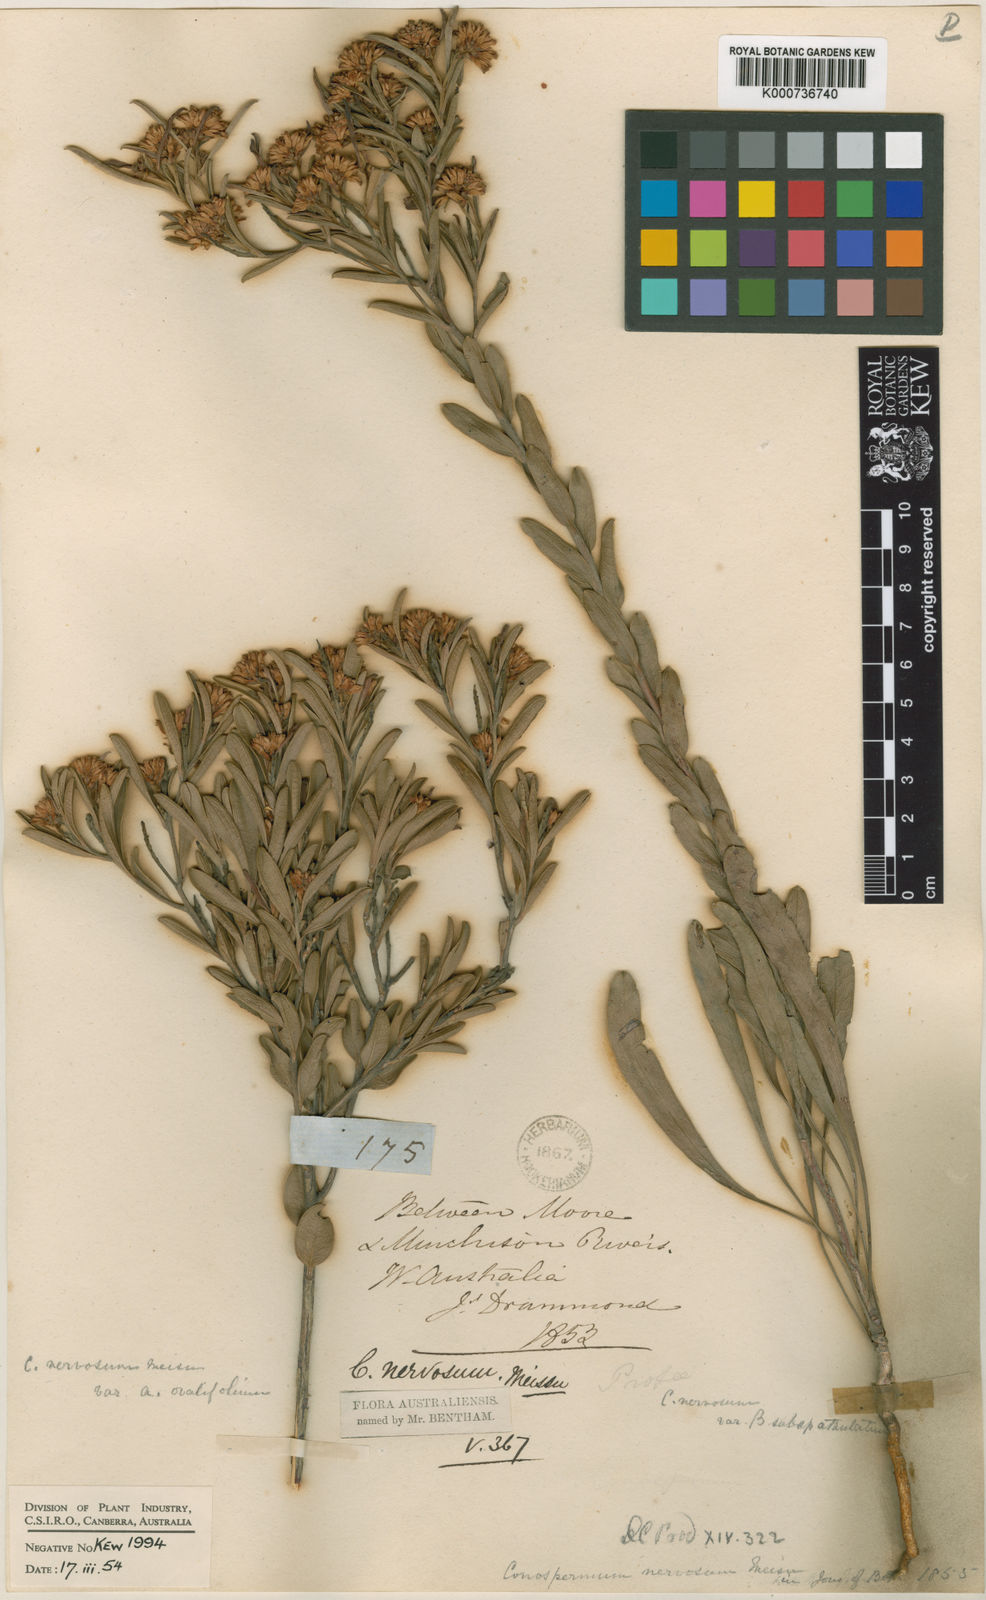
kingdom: Plantae
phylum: Tracheophyta
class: Magnoliopsida
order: Proteales
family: Proteaceae
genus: Conospermum
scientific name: Conospermum nervosum
